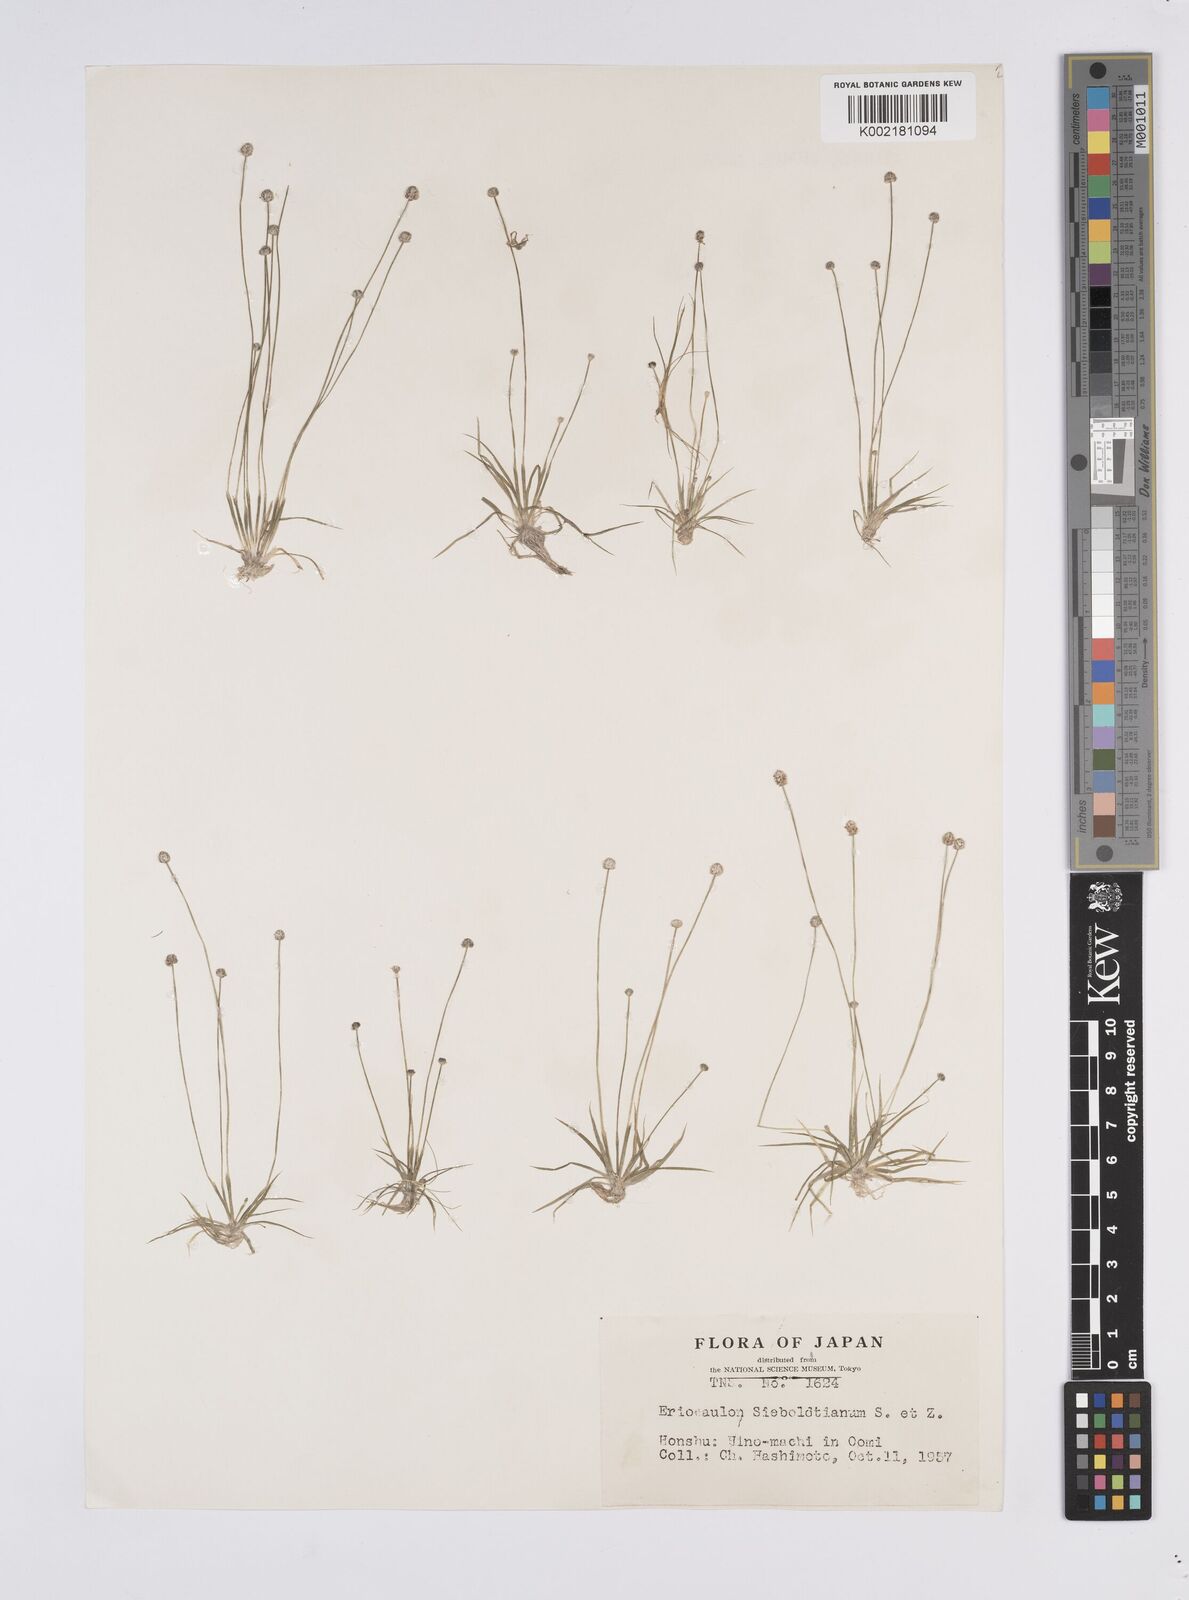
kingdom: Plantae
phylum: Tracheophyta
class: Liliopsida
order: Poales
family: Eriocaulaceae
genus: Eriocaulon
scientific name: Eriocaulon cinereum
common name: Ashy pipewort
